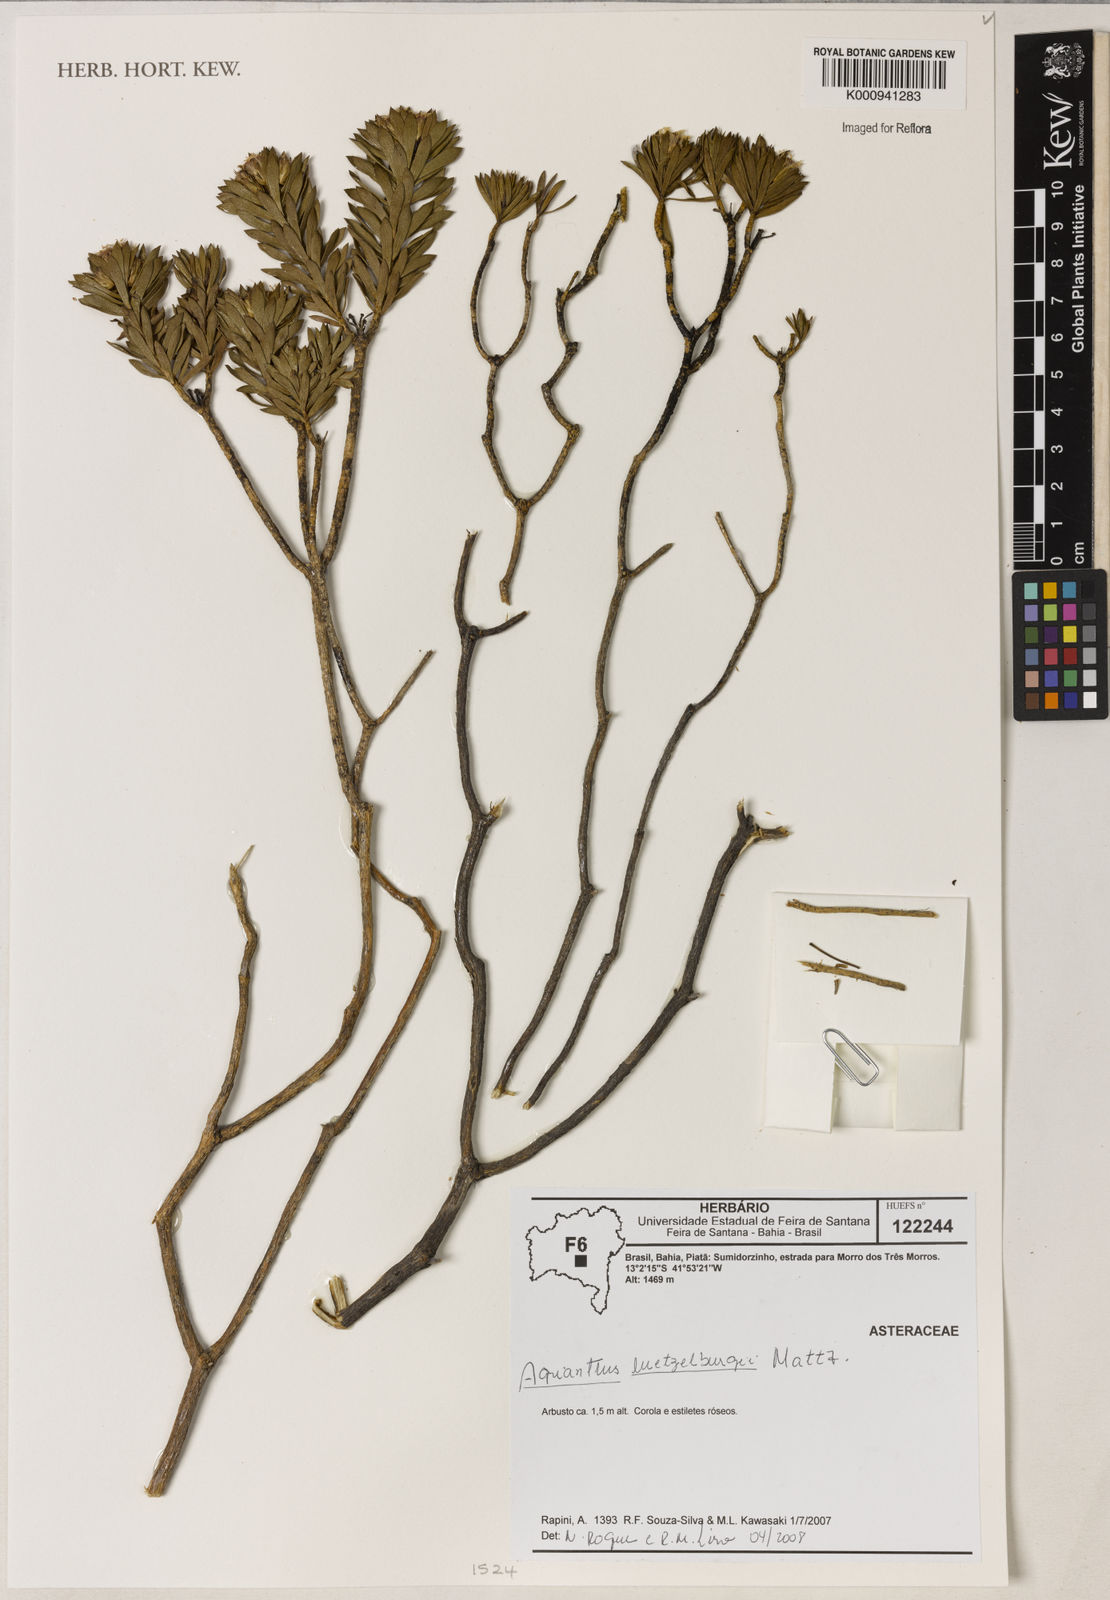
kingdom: Plantae
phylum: Tracheophyta
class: Magnoliopsida
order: Asterales
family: Asteraceae
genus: Agrianthus
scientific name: Agrianthus
